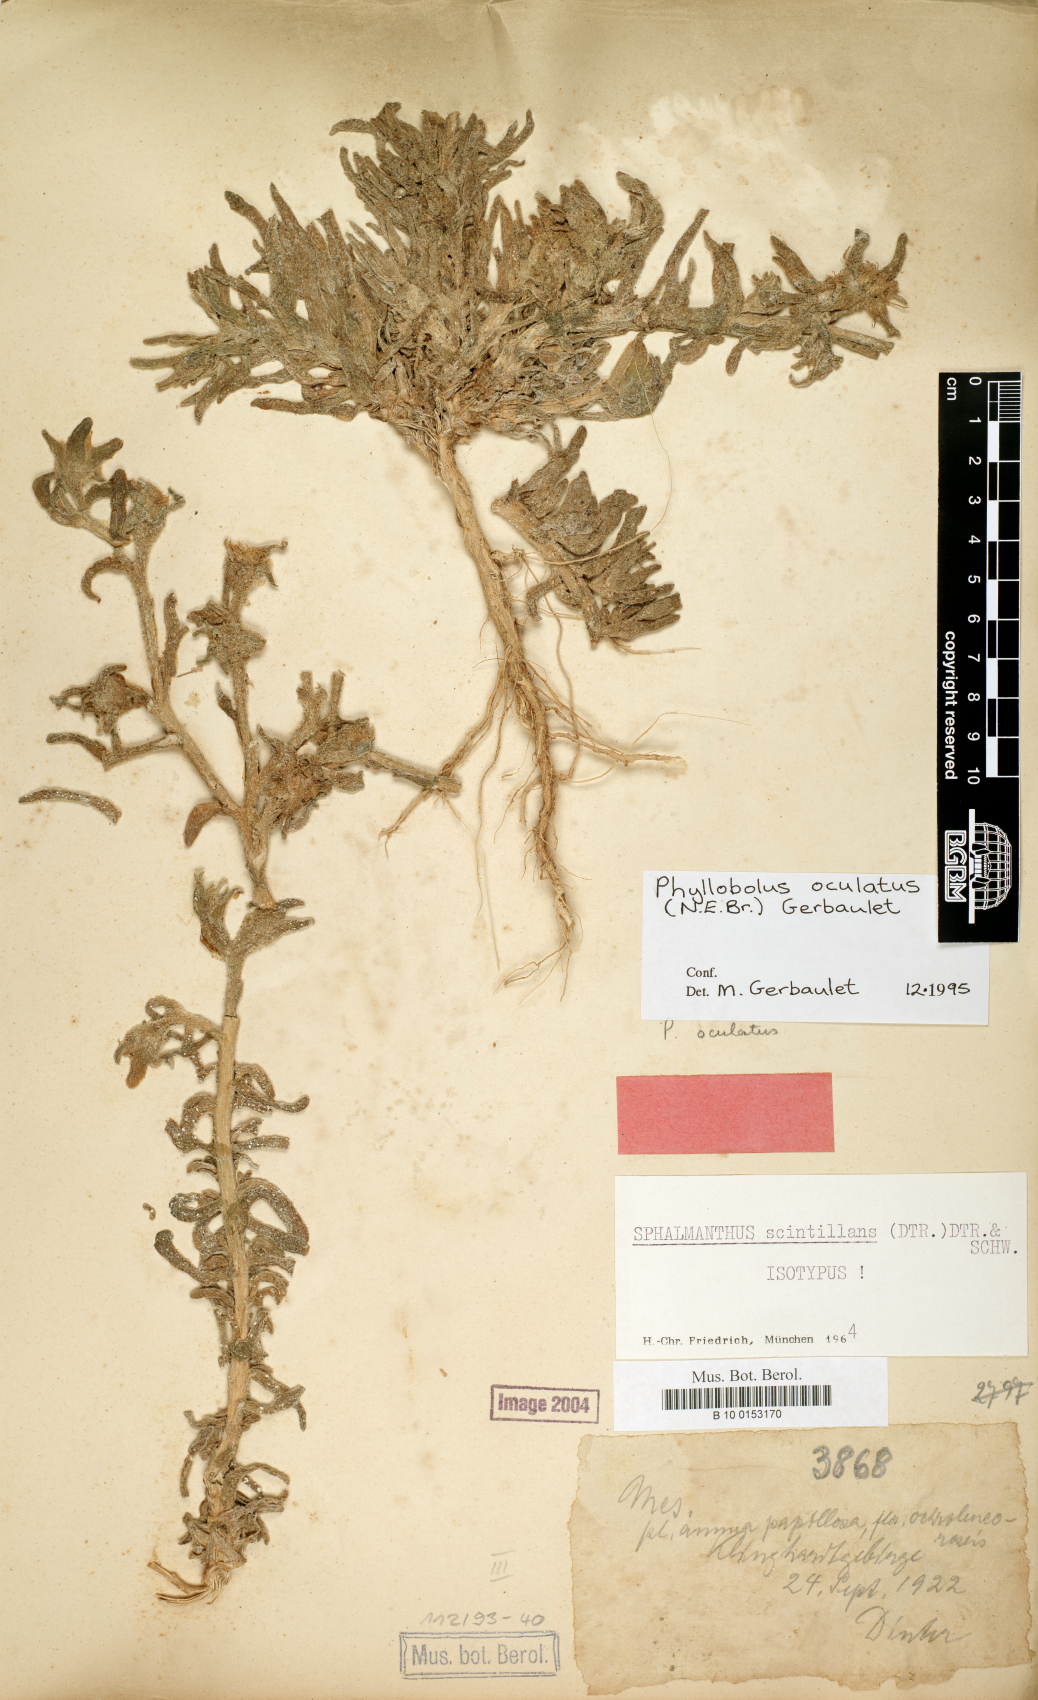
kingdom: Plantae
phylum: Tracheophyta
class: Magnoliopsida
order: Caryophyllales
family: Aizoaceae
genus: Mesembryanthemum
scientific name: Mesembryanthemum oculatum
